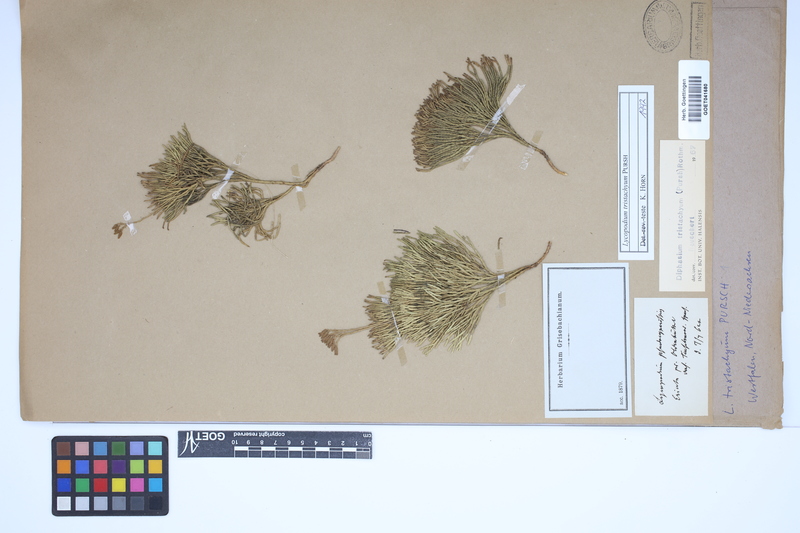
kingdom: Plantae
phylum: Tracheophyta
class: Lycopodiopsida
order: Lycopodiales
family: Lycopodiaceae
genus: Diphasiastrum
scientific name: Diphasiastrum tristachyum
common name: Blue ground-cedar
